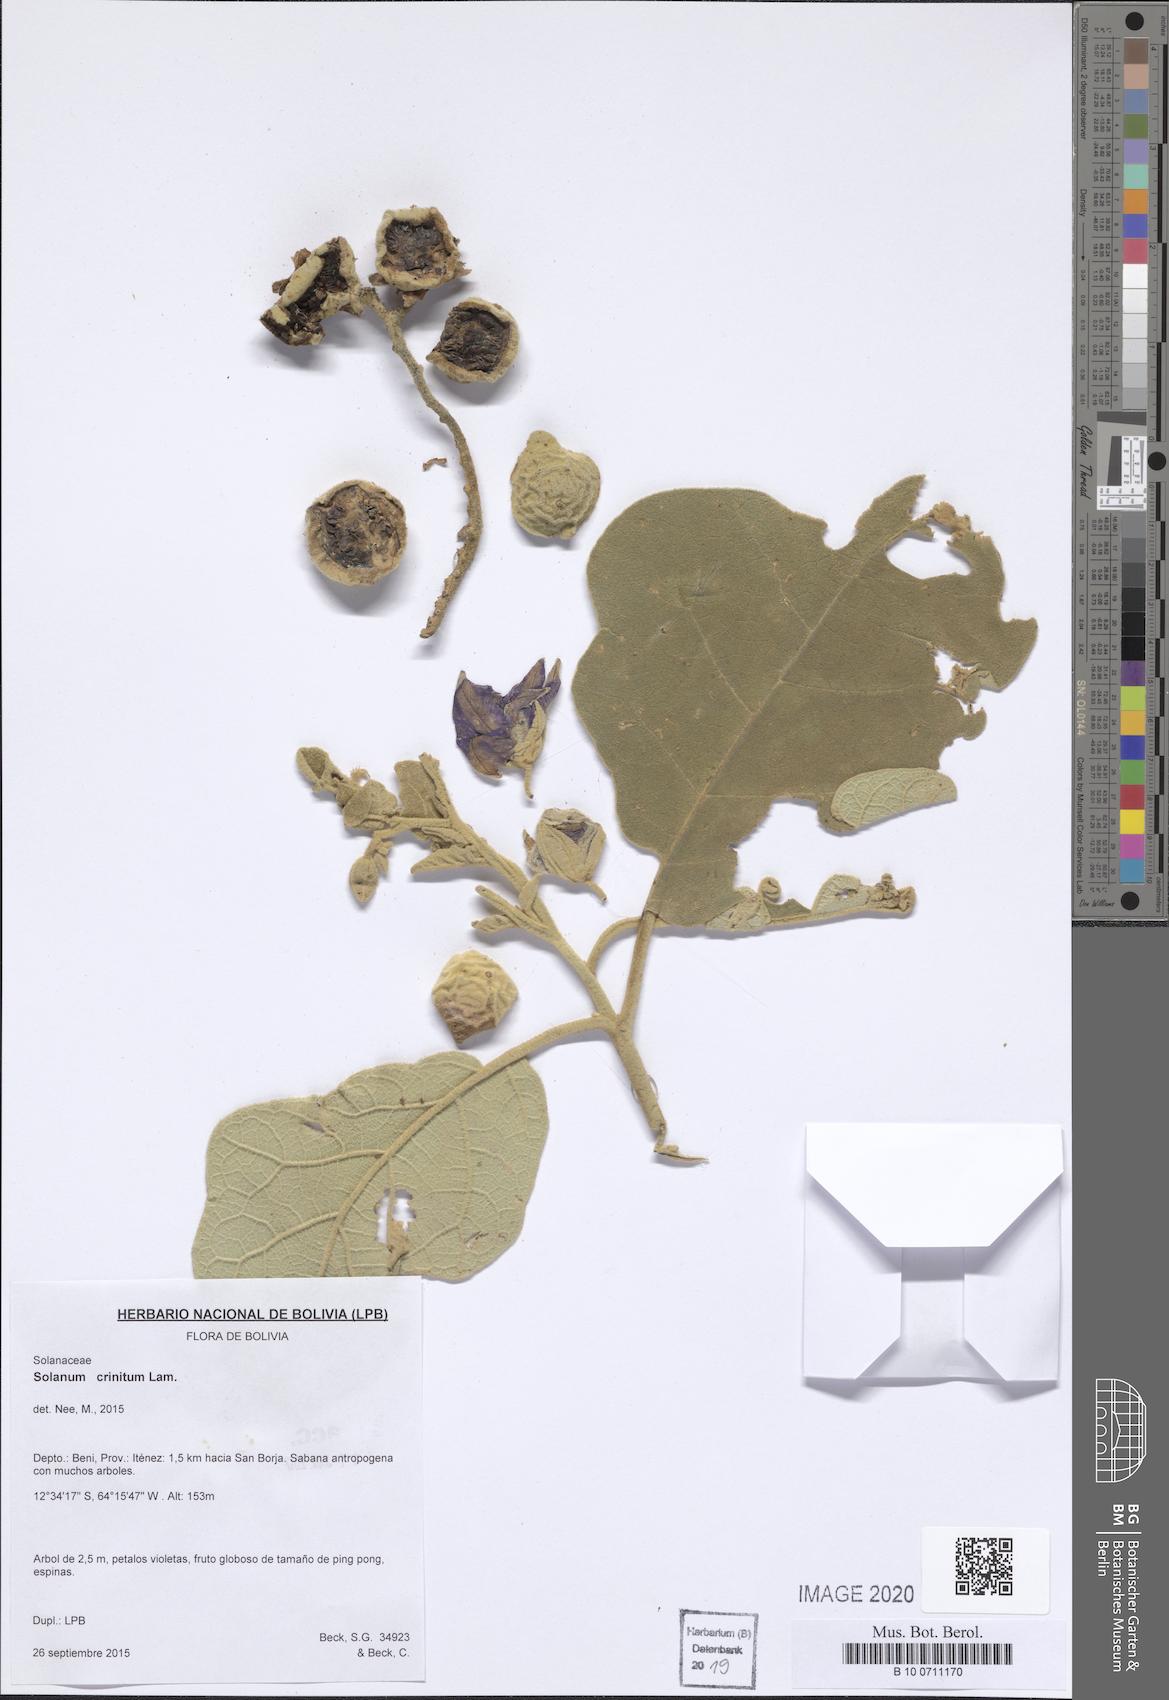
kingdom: Plantae
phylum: Tracheophyta
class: Magnoliopsida
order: Solanales
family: Solanaceae
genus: Solanum
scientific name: Solanum crinitum
